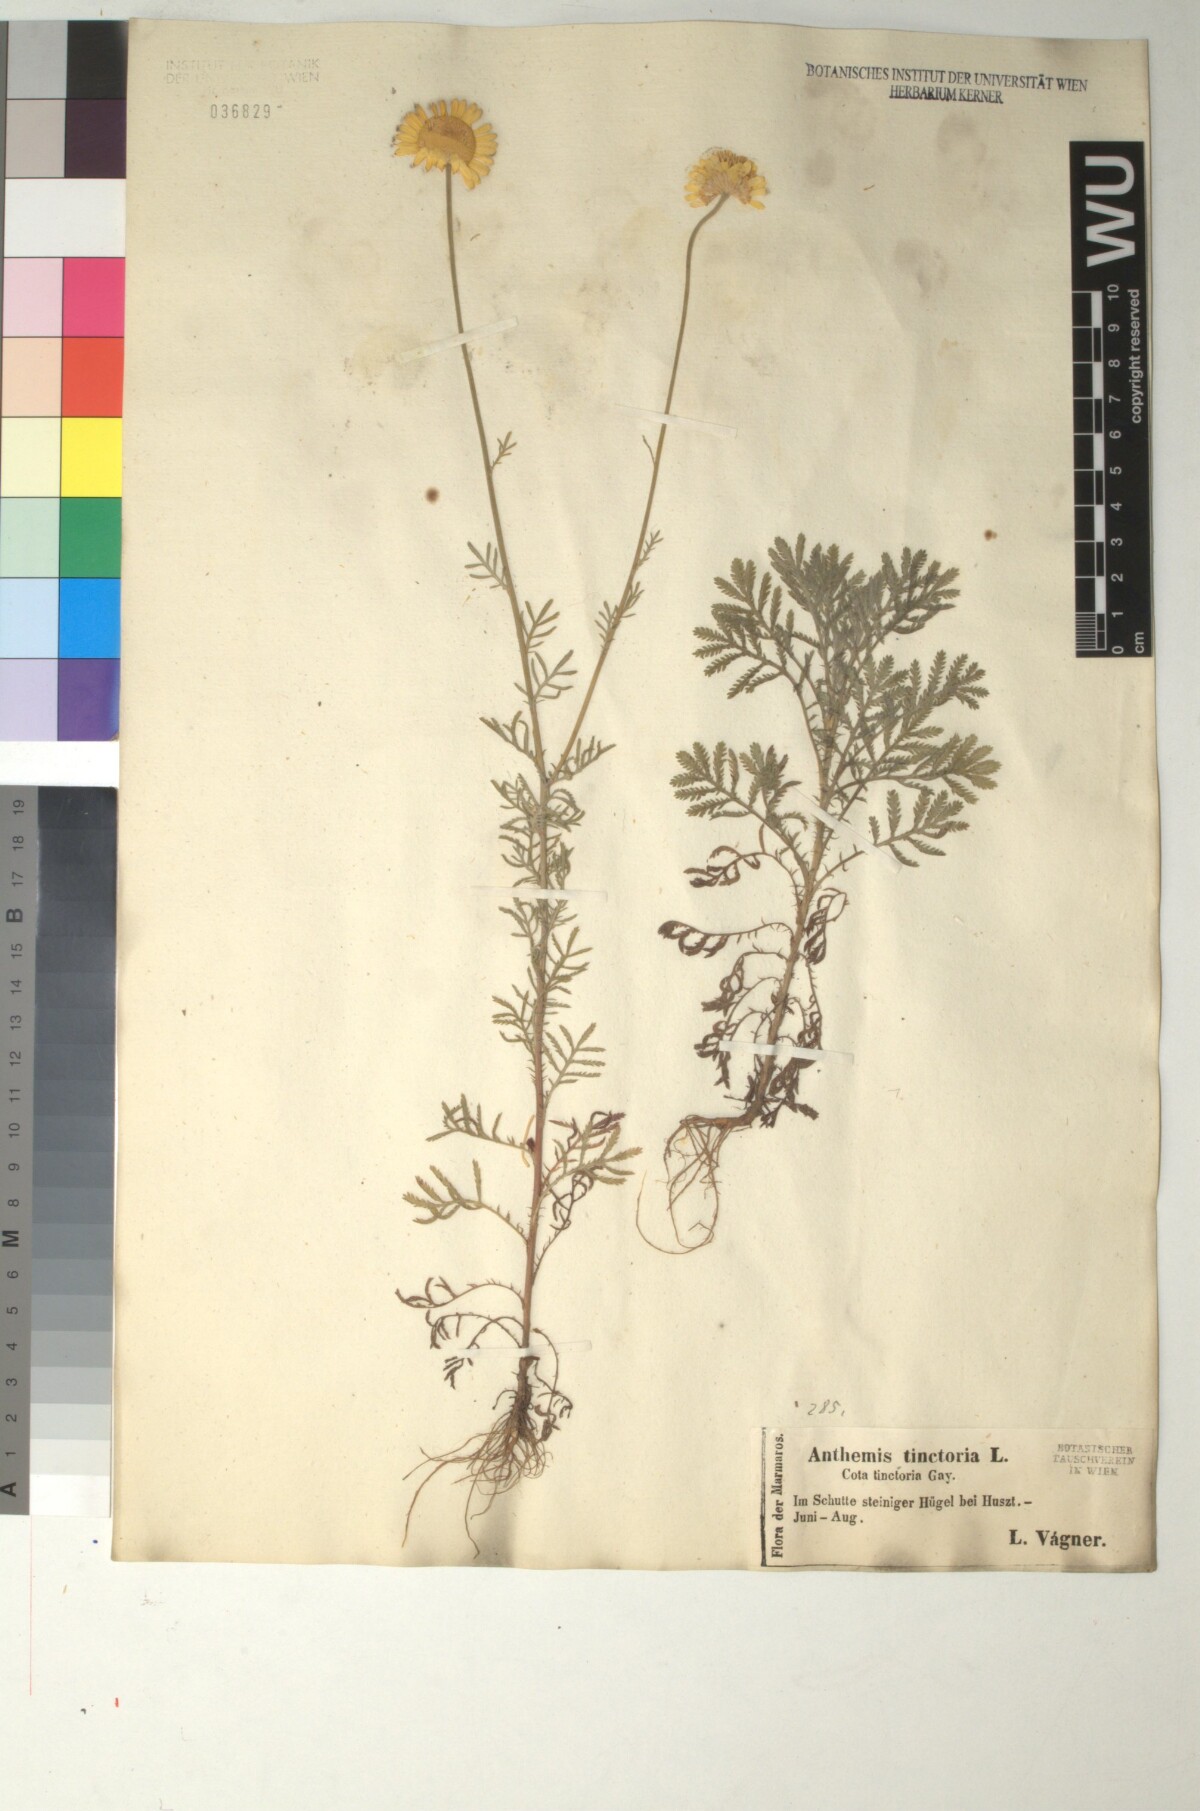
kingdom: Plantae
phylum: Tracheophyta
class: Magnoliopsida
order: Asterales
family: Asteraceae
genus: Cota
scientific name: Cota tinctoria
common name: Golden chamomile
